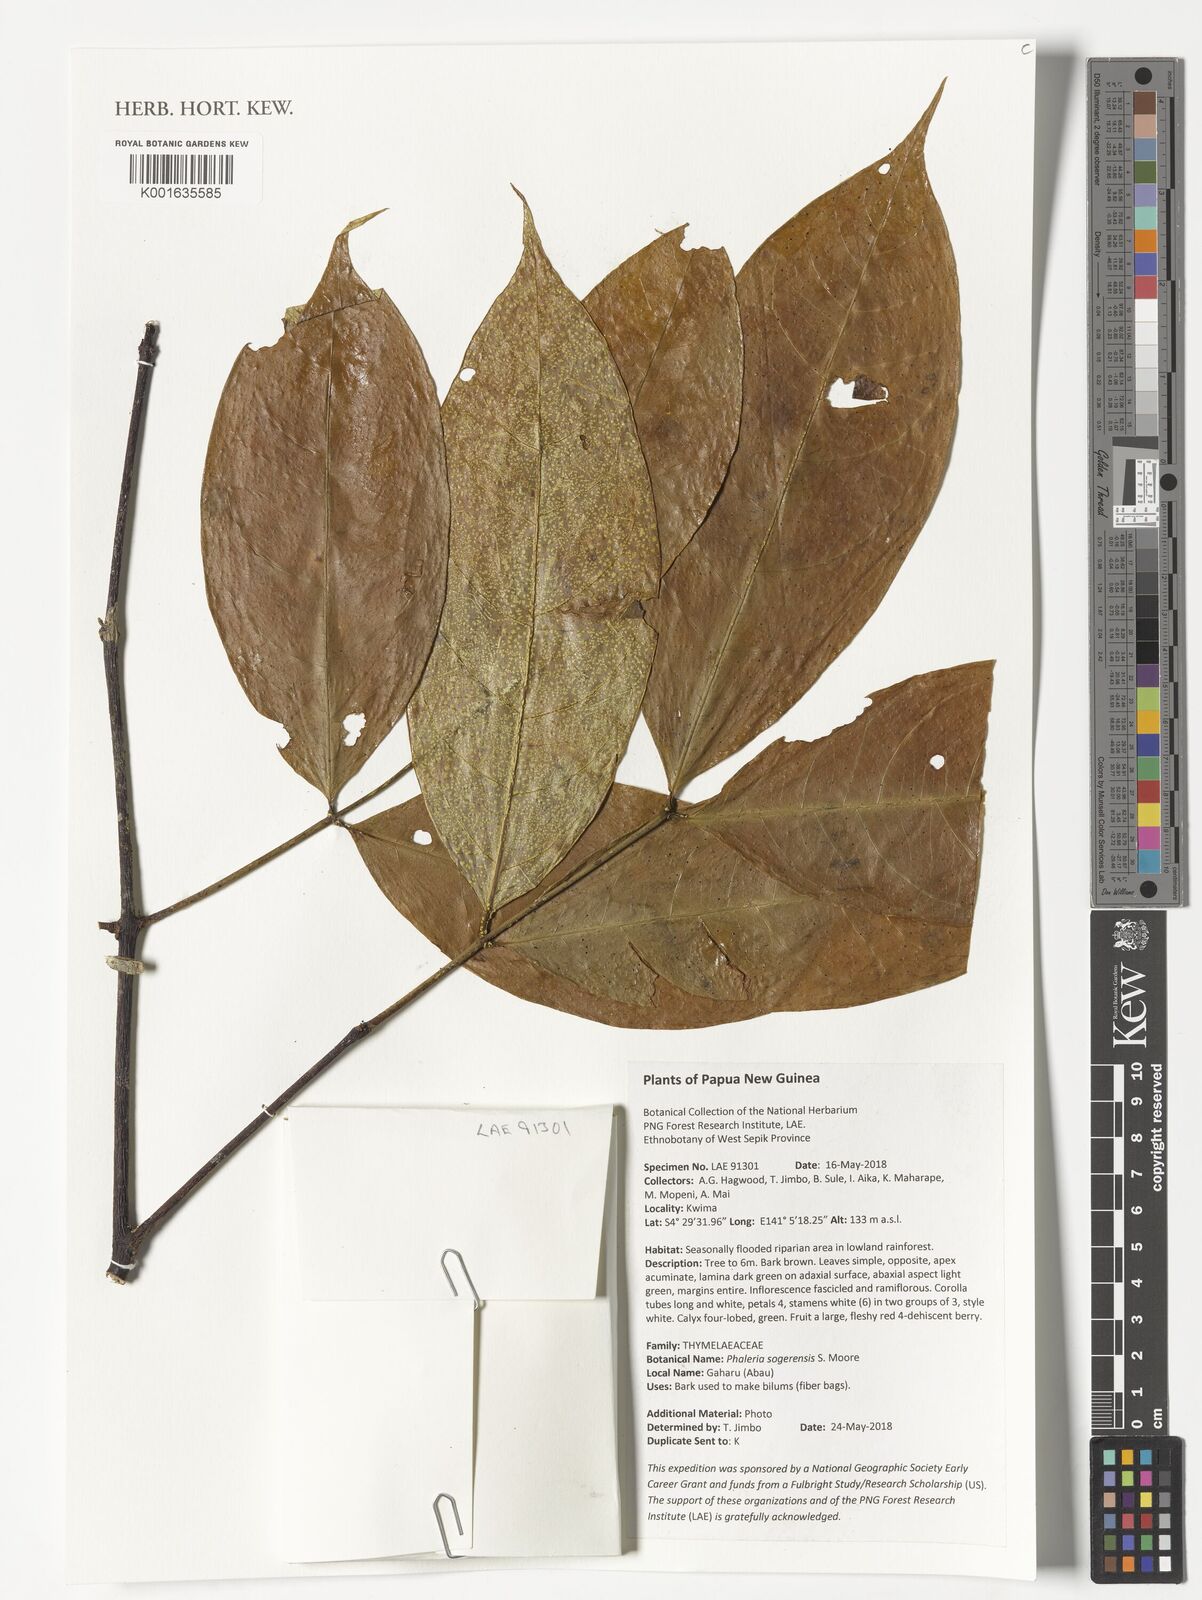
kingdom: Plantae
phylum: Tracheophyta
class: Magnoliopsida
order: Malvales
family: Thymelaeaceae
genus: Phaleria
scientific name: Phaleria sogerensis
